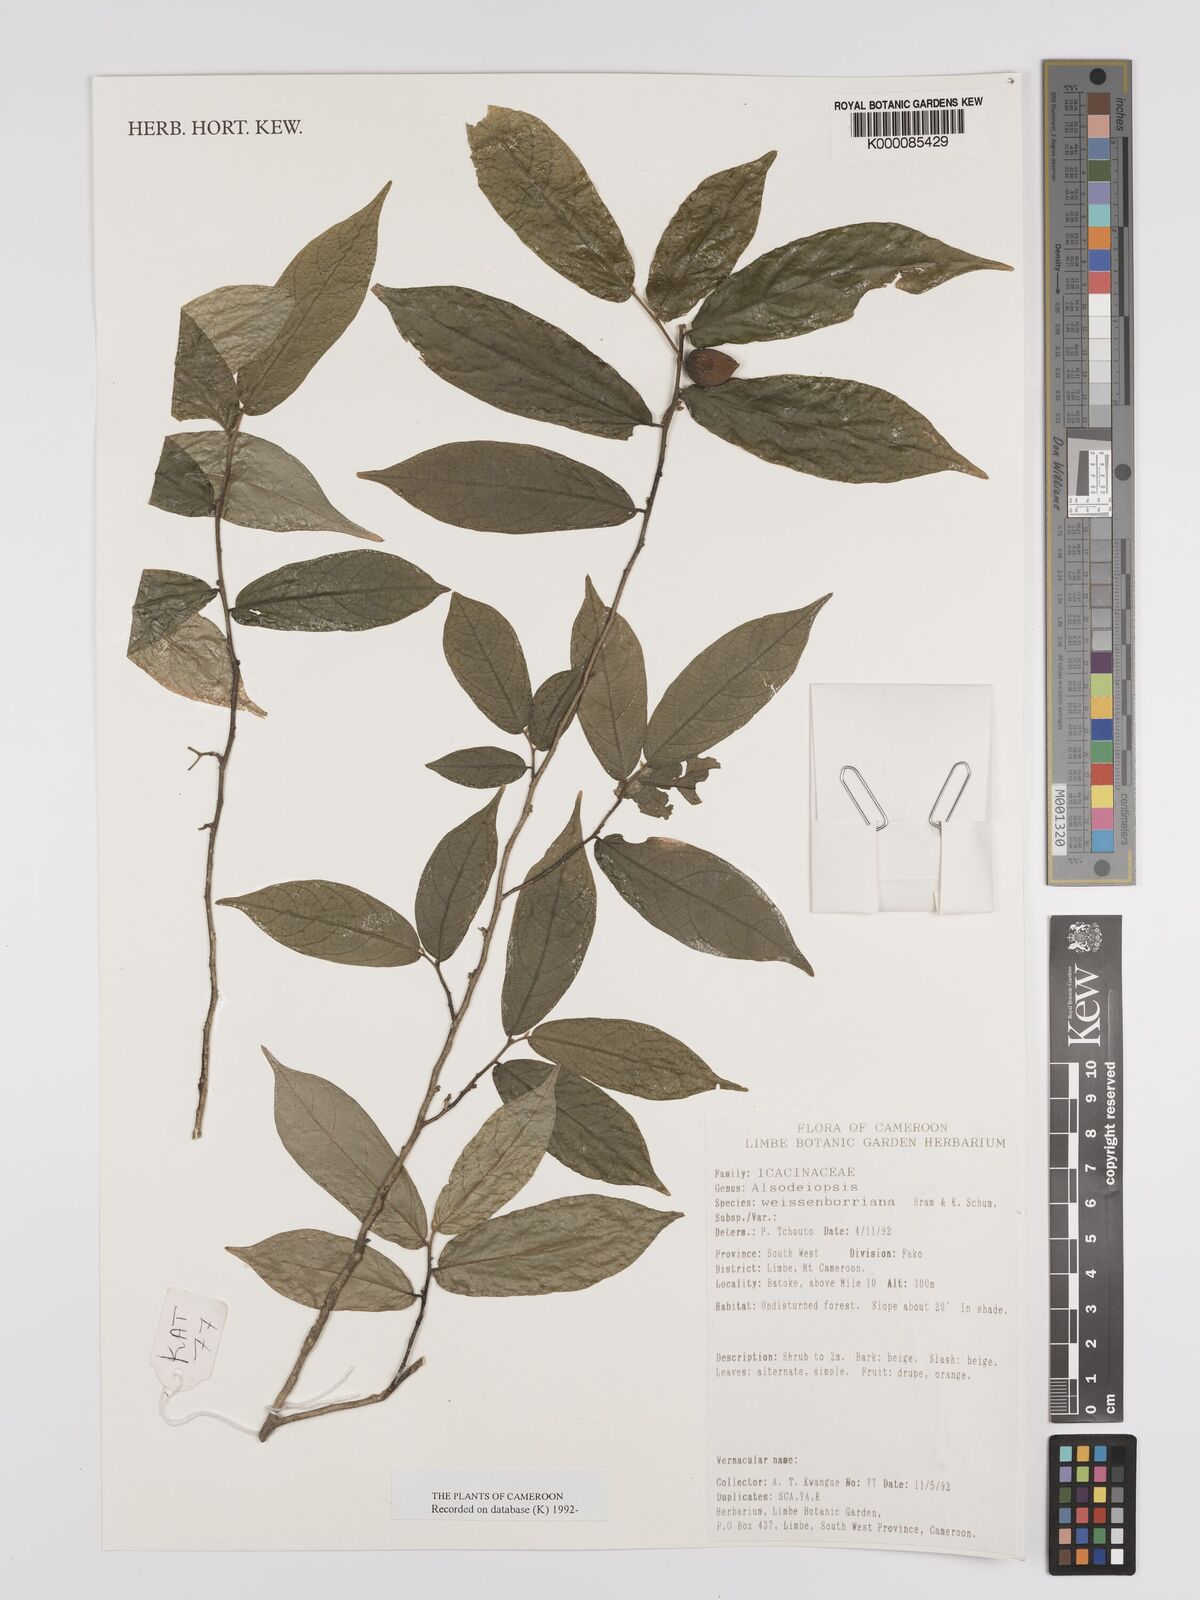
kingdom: Plantae
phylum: Tracheophyta
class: Magnoliopsida
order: Icacinales
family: Icacinaceae
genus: Alsodeiopsis
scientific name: Alsodeiopsis mannii
